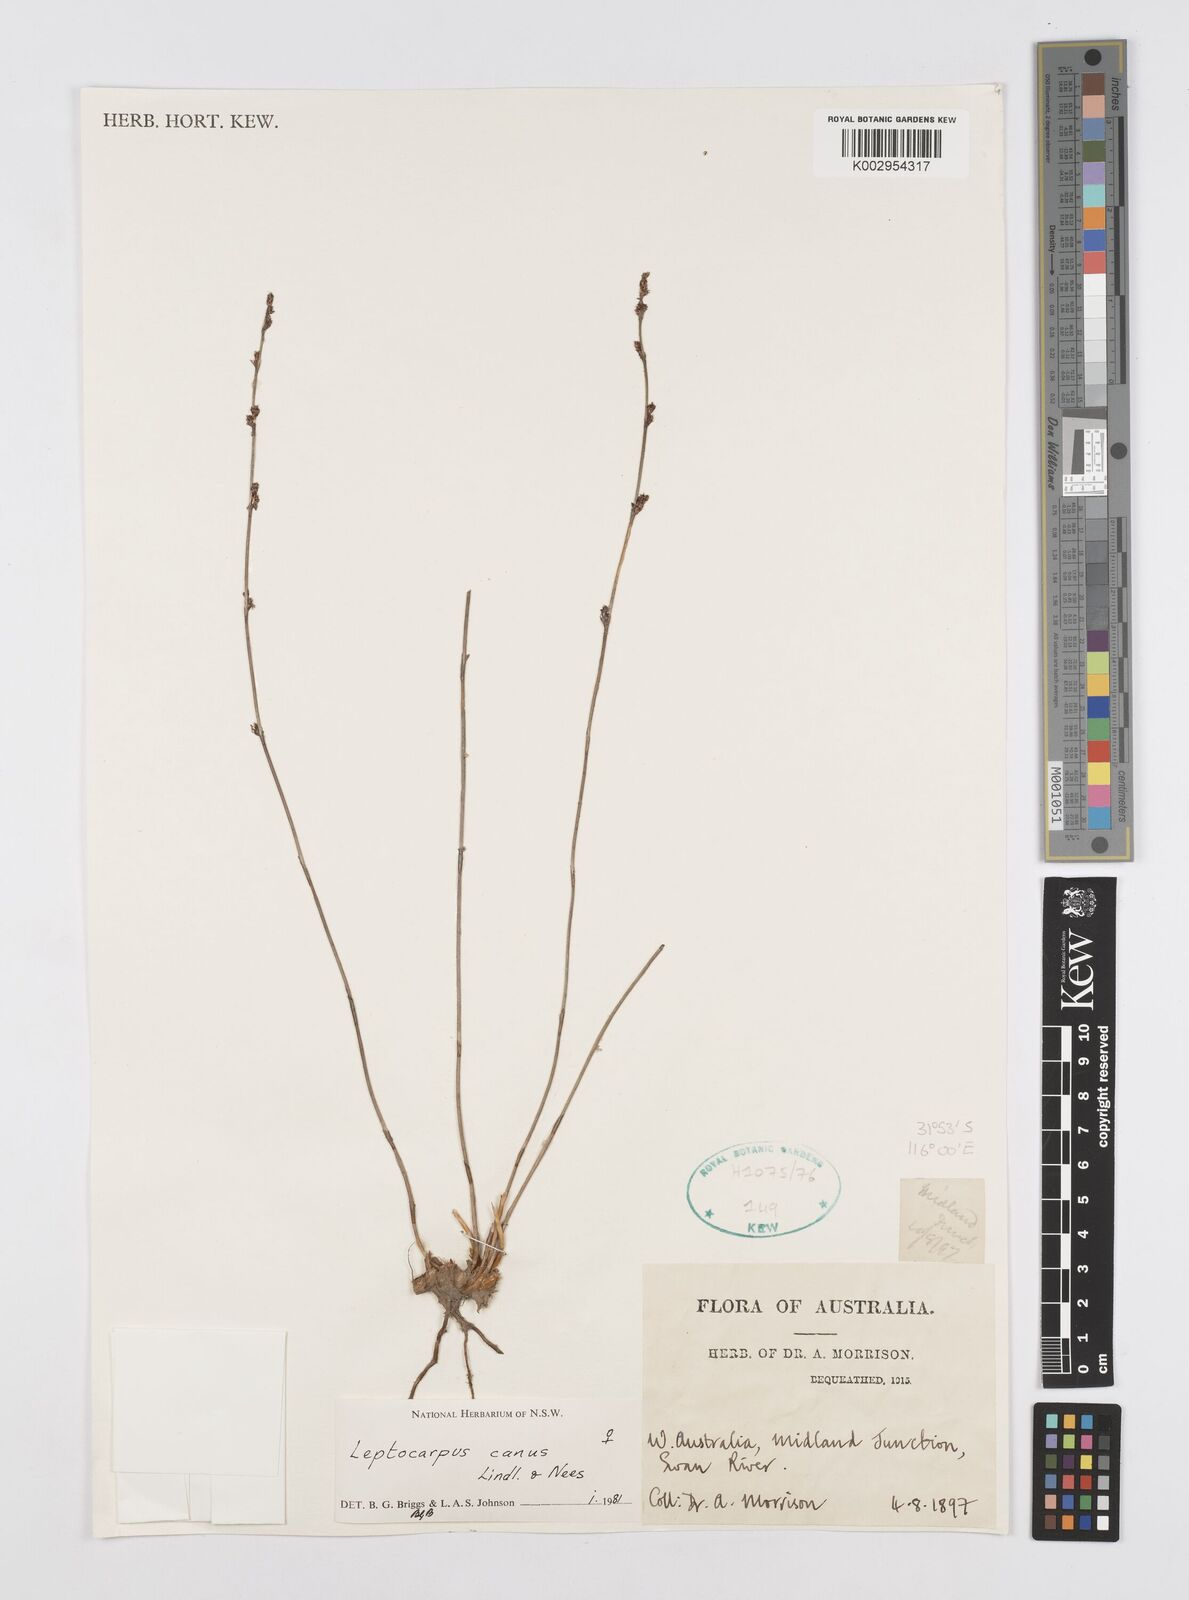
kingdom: Plantae
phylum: Tracheophyta
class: Liliopsida
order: Poales
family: Restionaceae
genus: Leptocarpus
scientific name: Leptocarpus canus
